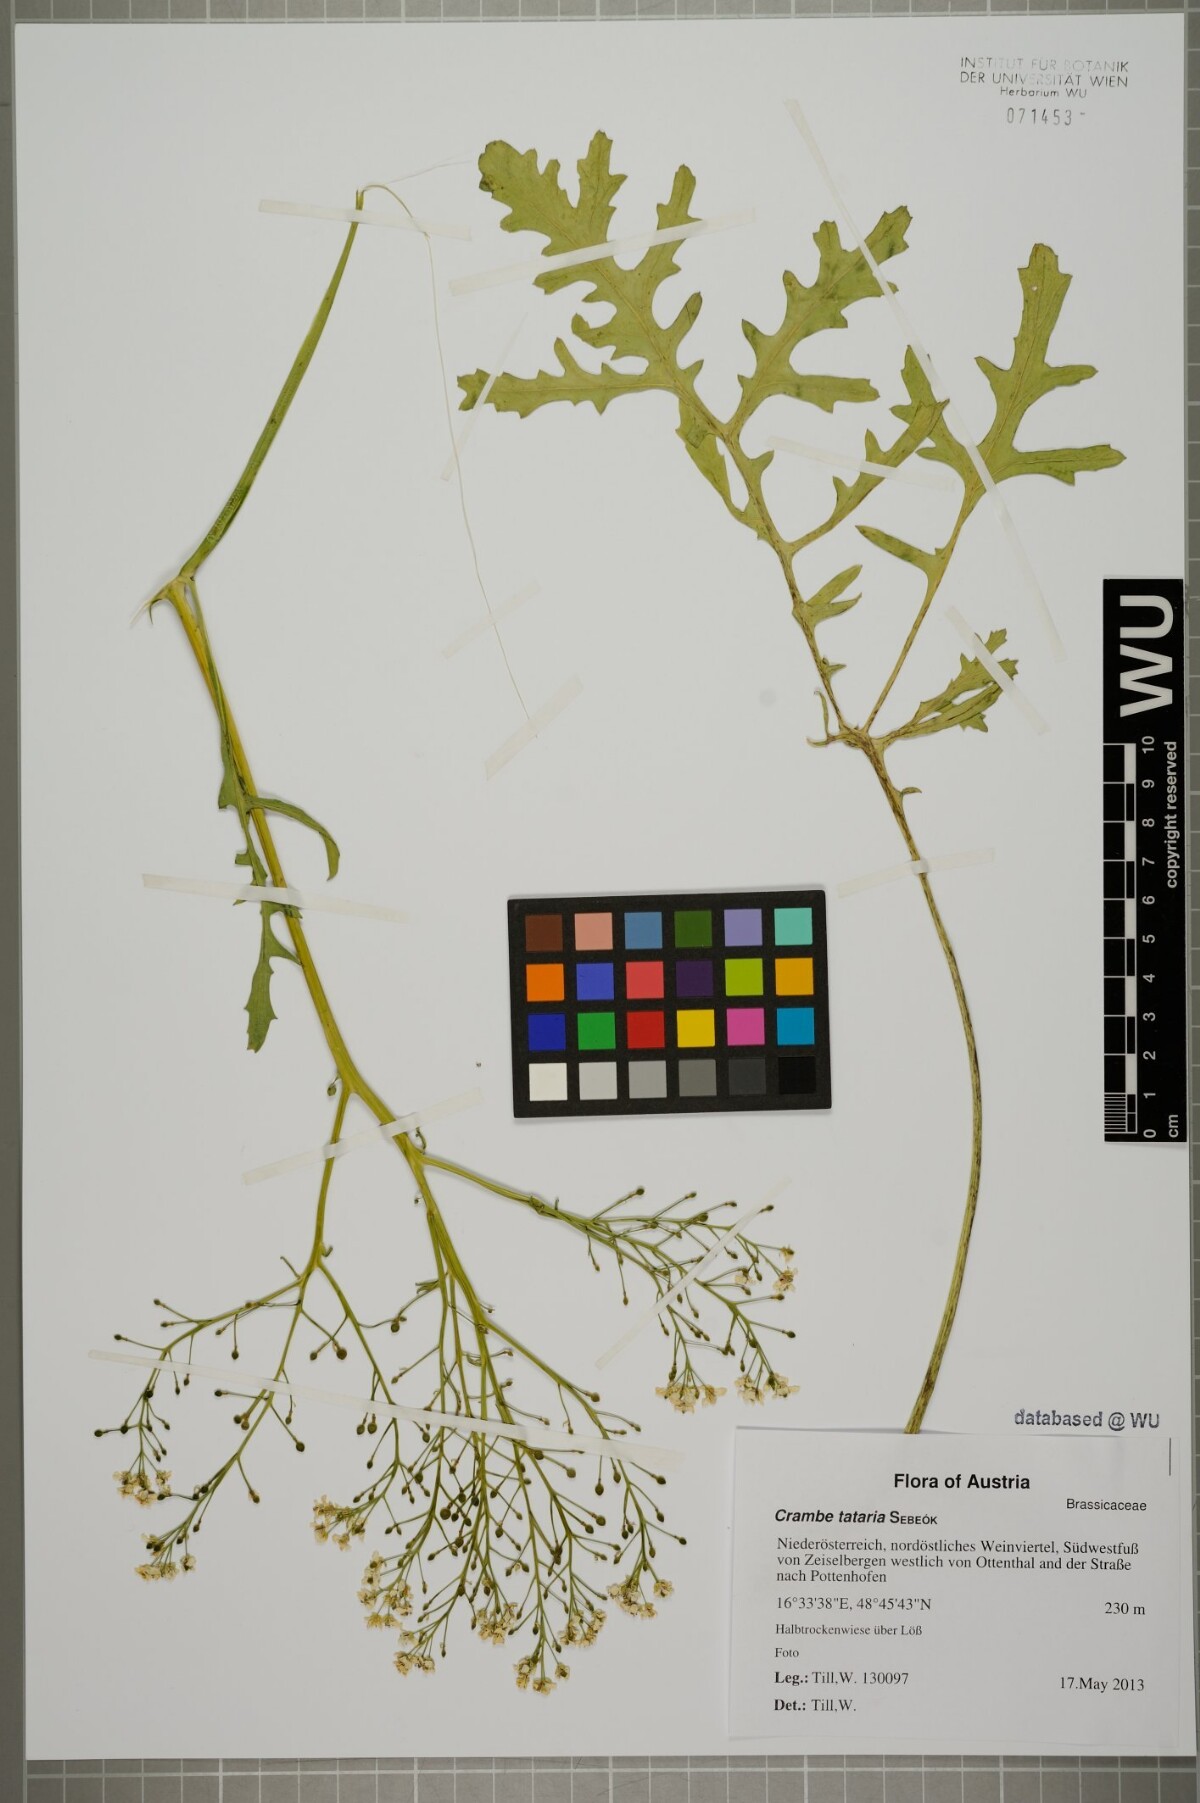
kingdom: Plantae
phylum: Tracheophyta
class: Magnoliopsida
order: Brassicales
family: Brassicaceae
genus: Crambe
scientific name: Crambe tataria
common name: Tartarian breadplant
